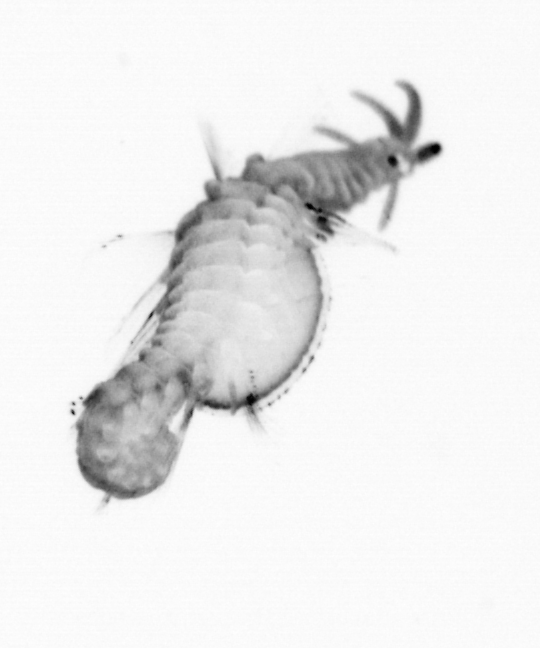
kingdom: Animalia
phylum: Annelida
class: Polychaeta
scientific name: Polychaeta
